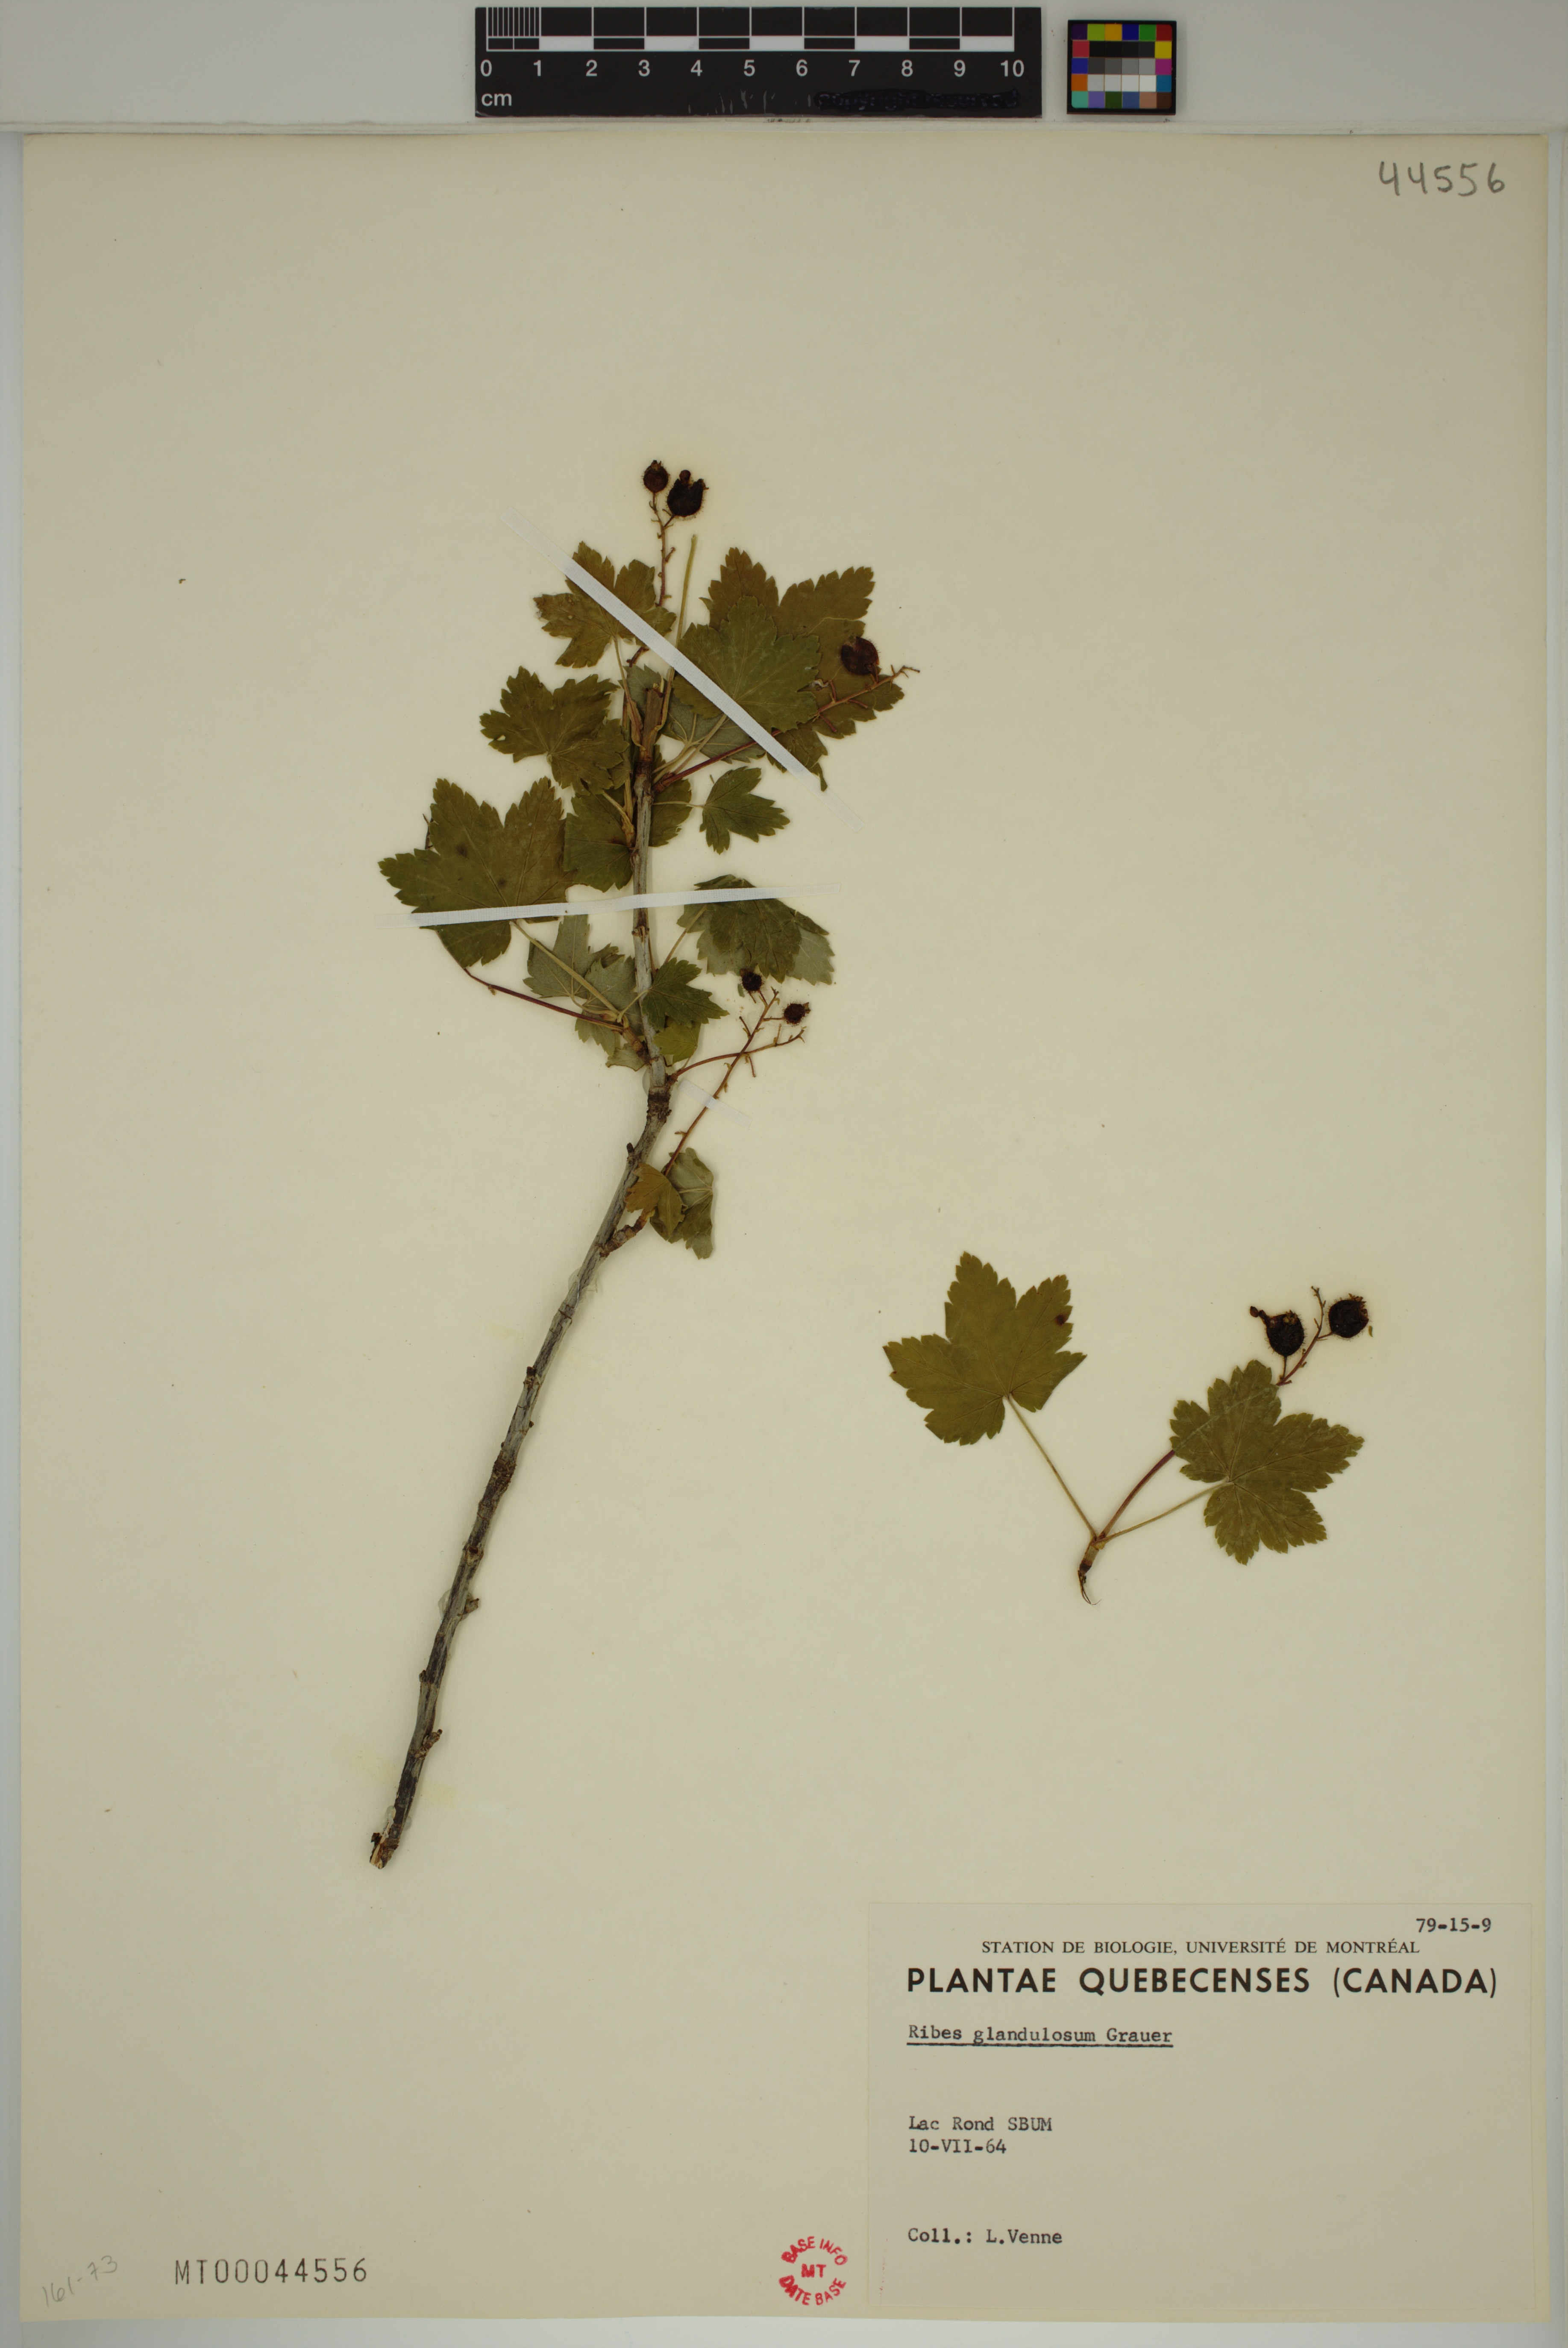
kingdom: Plantae
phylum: Tracheophyta
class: Magnoliopsida
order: Saxifragales
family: Grossulariaceae
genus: Ribes
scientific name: Ribes glandulosum
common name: Skunk currant
